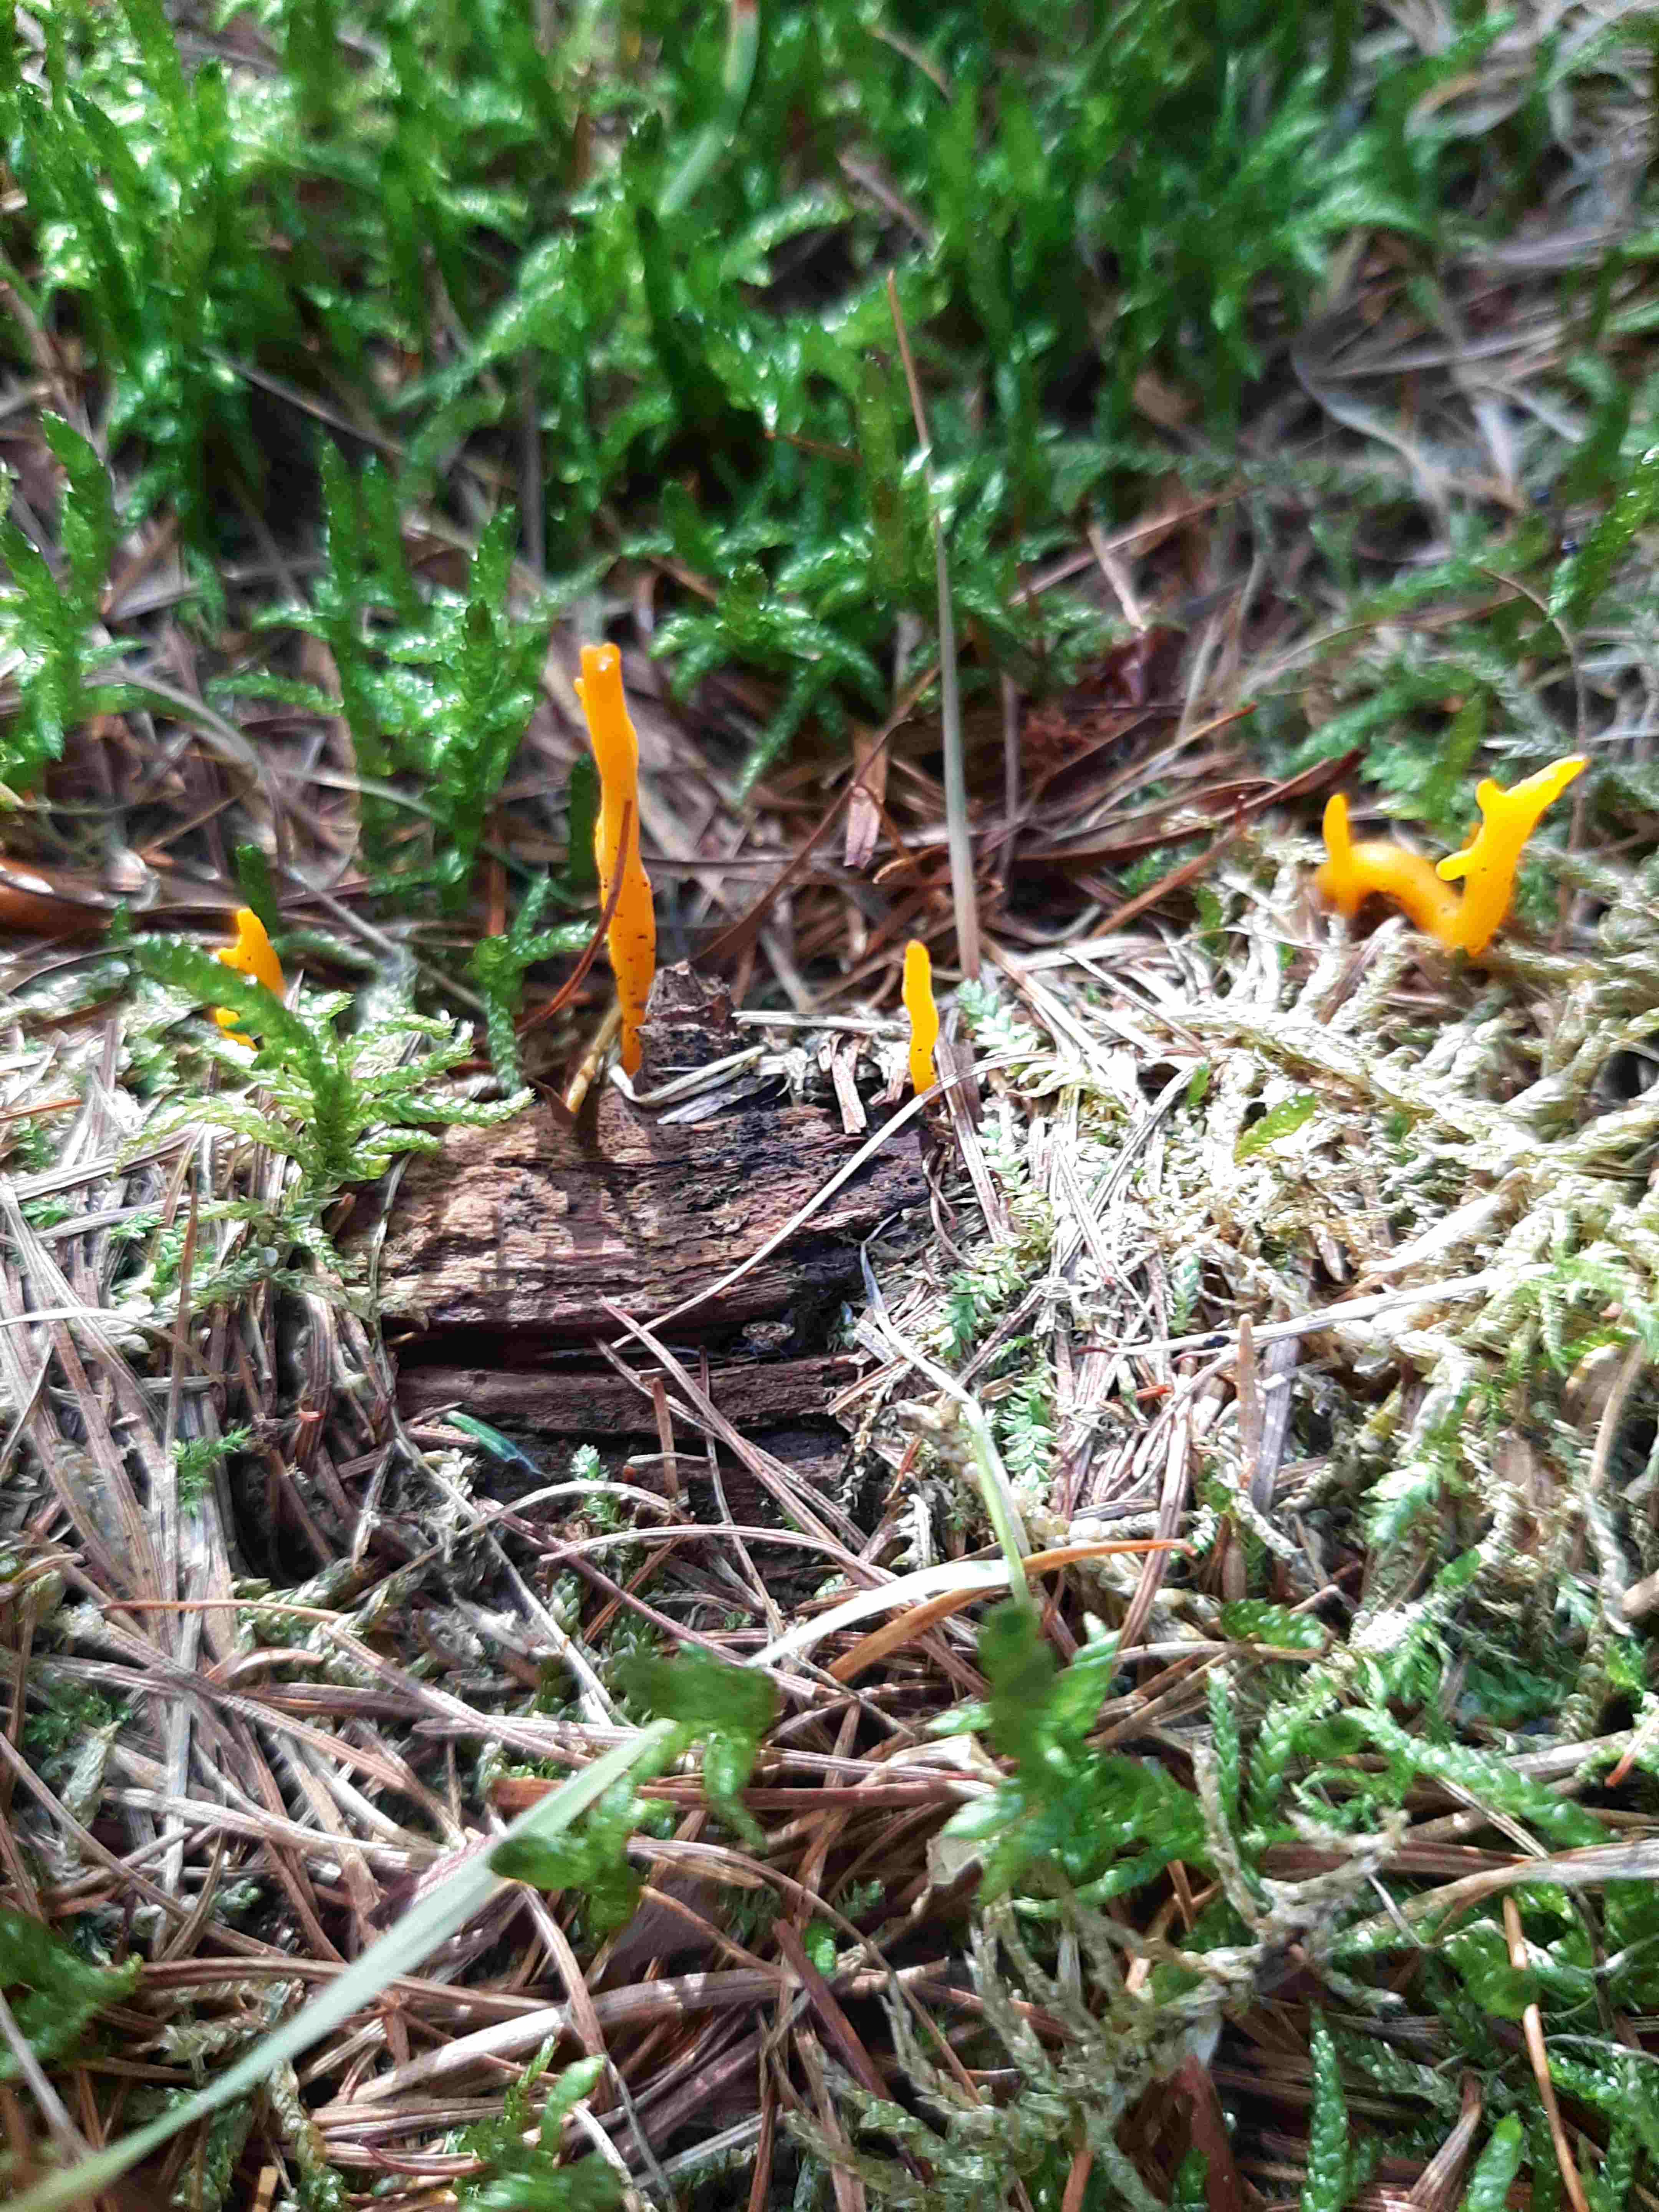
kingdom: Fungi
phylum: Basidiomycota
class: Dacrymycetes
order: Dacrymycetales
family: Dacrymycetaceae
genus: Calocera
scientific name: Calocera viscosa
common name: almindelig guldgaffel
